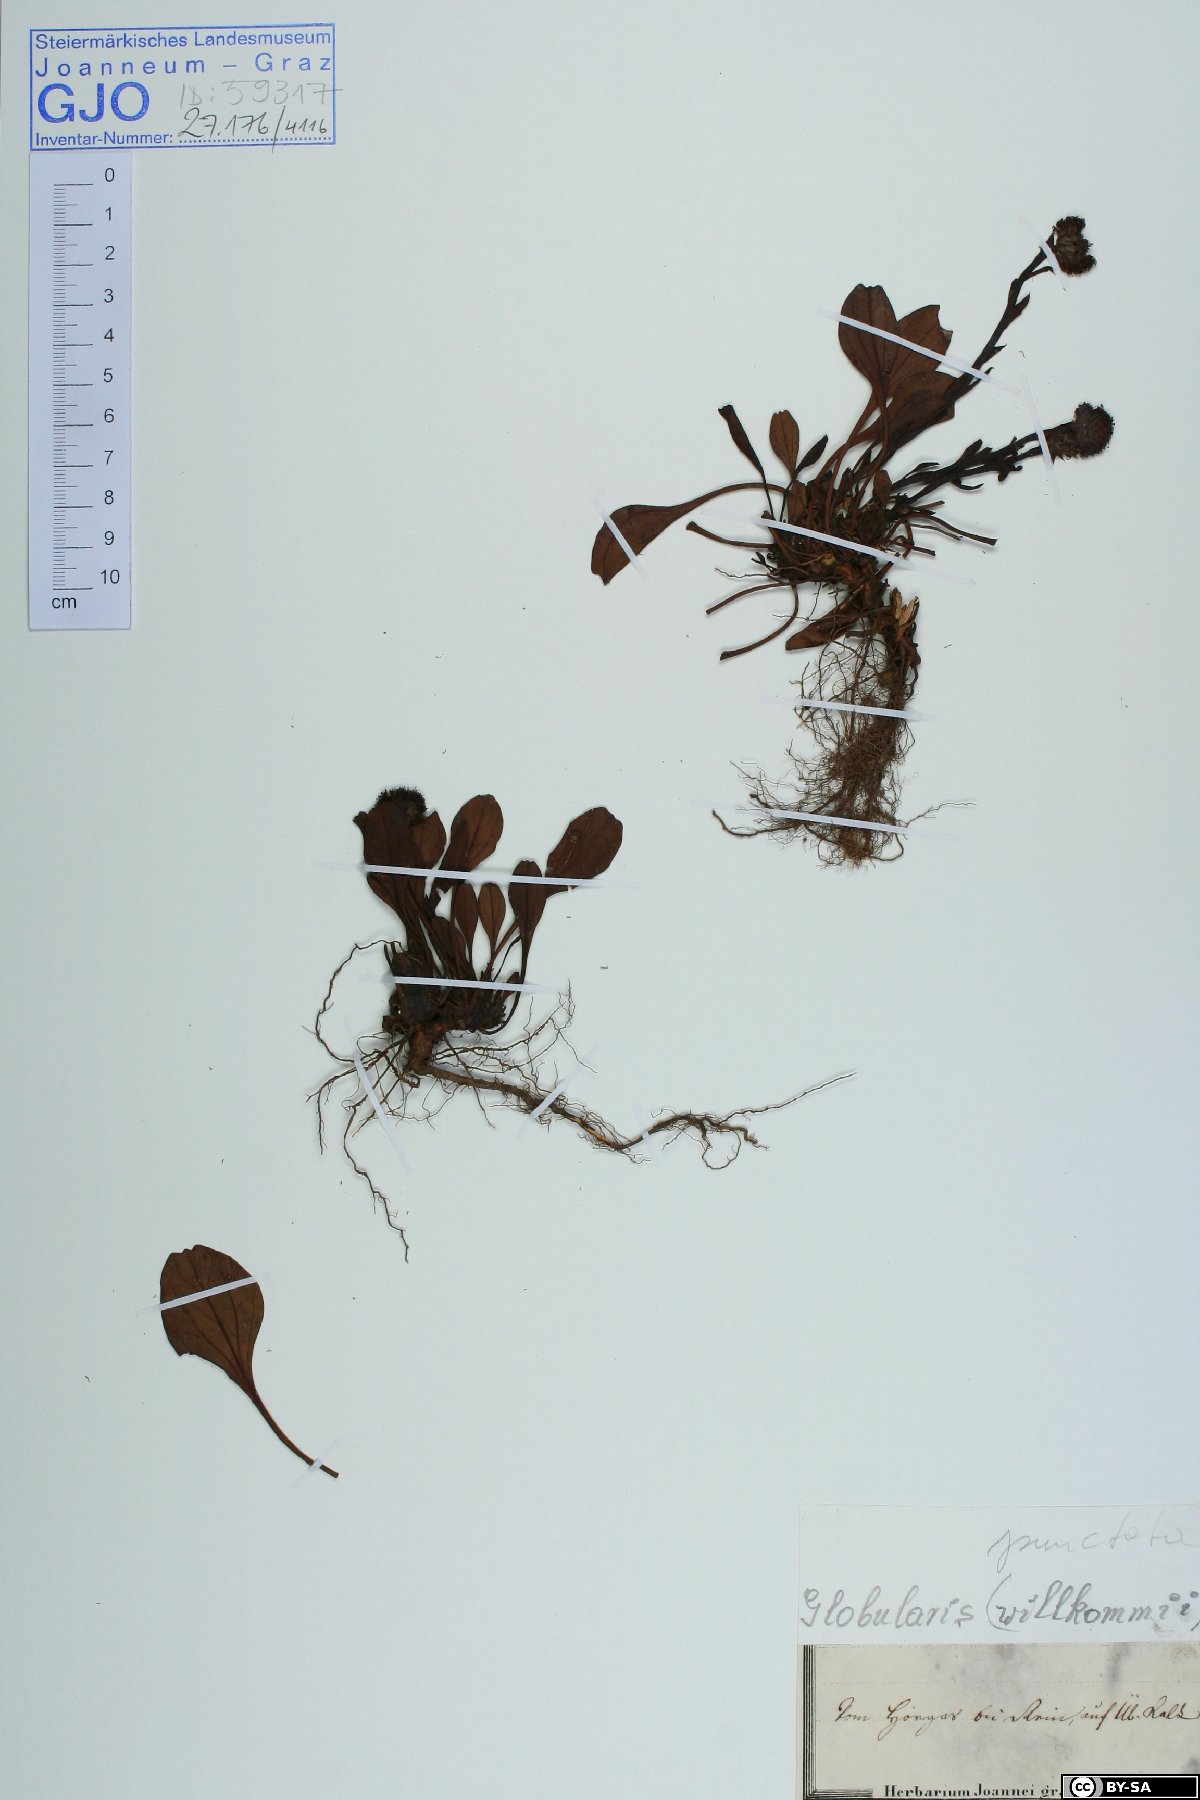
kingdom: Plantae
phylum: Tracheophyta
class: Magnoliopsida
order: Lamiales
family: Plantaginaceae
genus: Globularia
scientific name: Globularia bisnagarica
